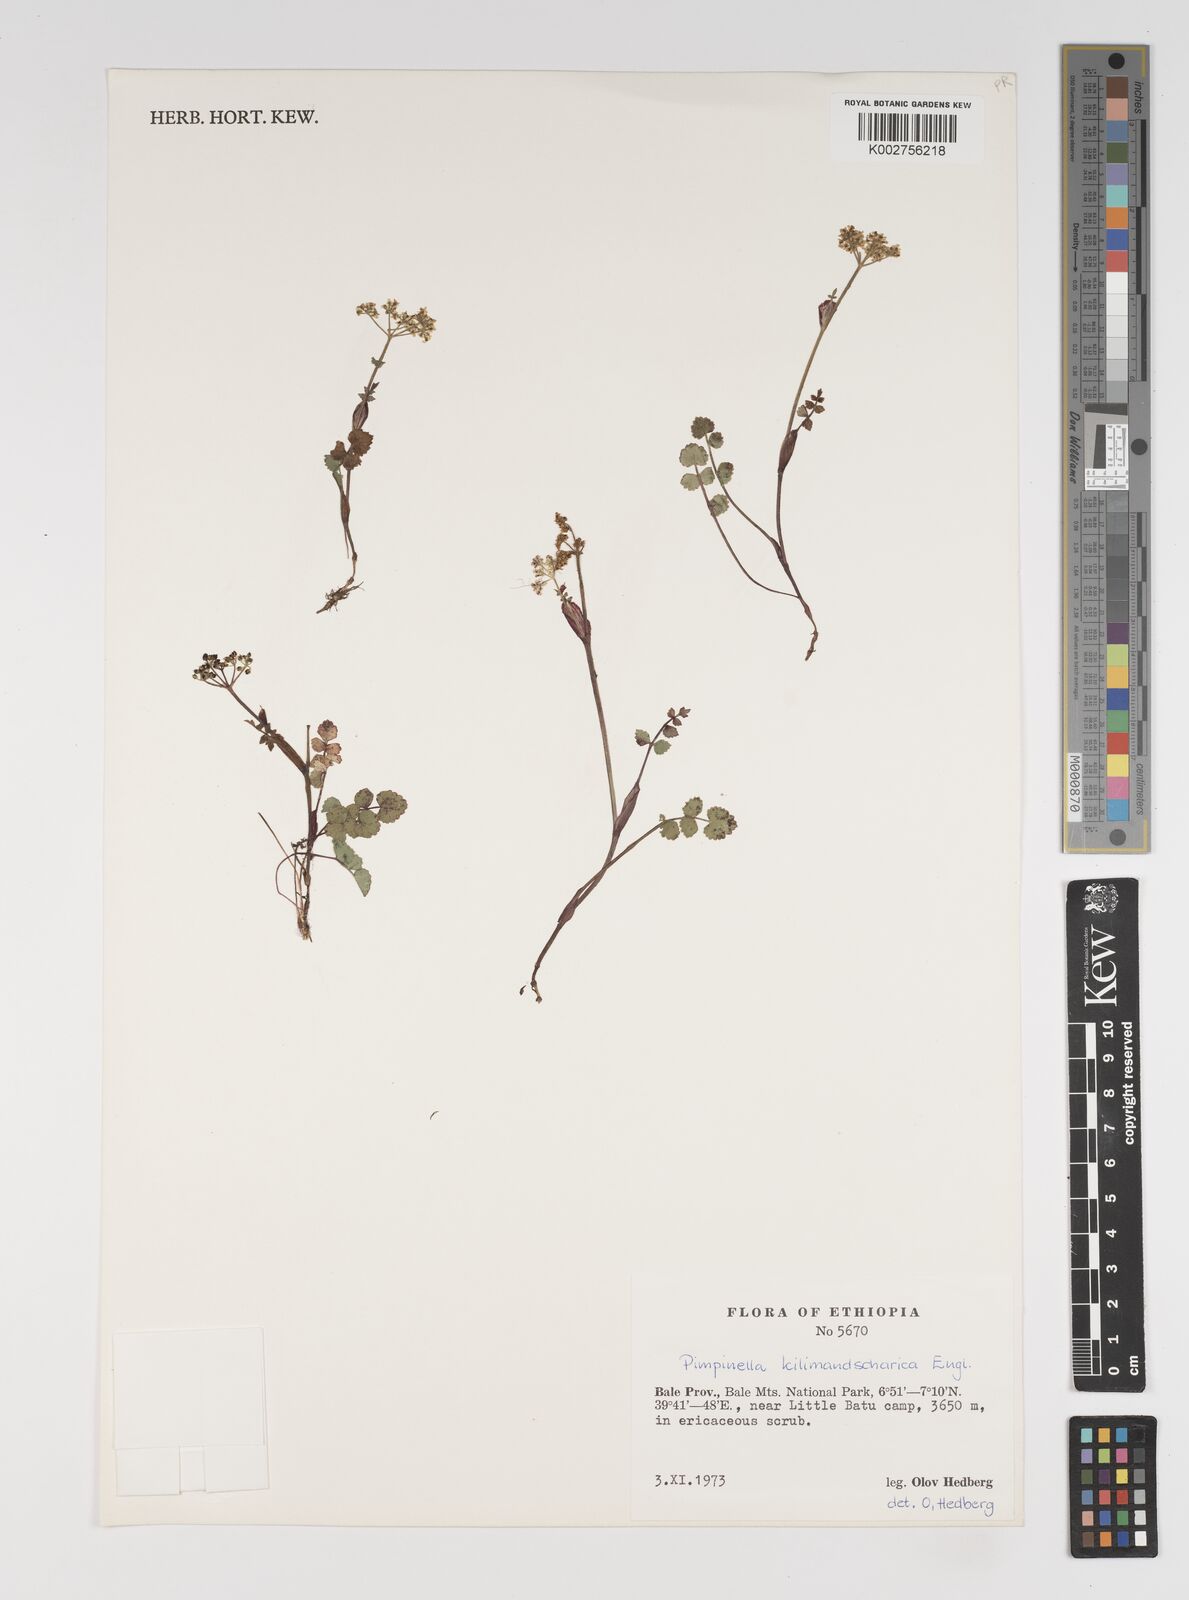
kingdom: Plantae
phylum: Tracheophyta
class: Magnoliopsida
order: Apiales
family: Apiaceae
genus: Pimpinella
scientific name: Pimpinella oreophila
